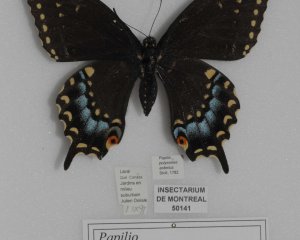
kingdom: Animalia
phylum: Arthropoda
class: Insecta
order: Lepidoptera
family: Papilionidae
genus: Papilio
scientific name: Papilio polyxenes
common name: Black Swallowtail
